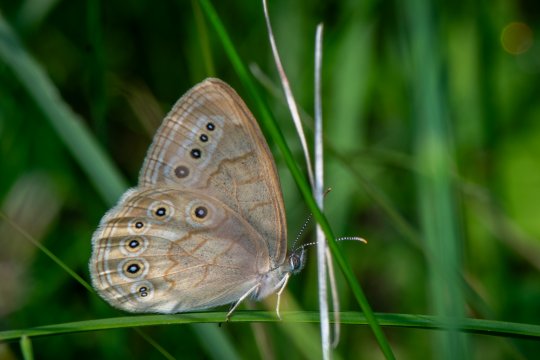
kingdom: Animalia
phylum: Arthropoda
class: Insecta
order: Lepidoptera
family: Nymphalidae
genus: Lethe
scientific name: Lethe eurydice
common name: Eyed Brown
